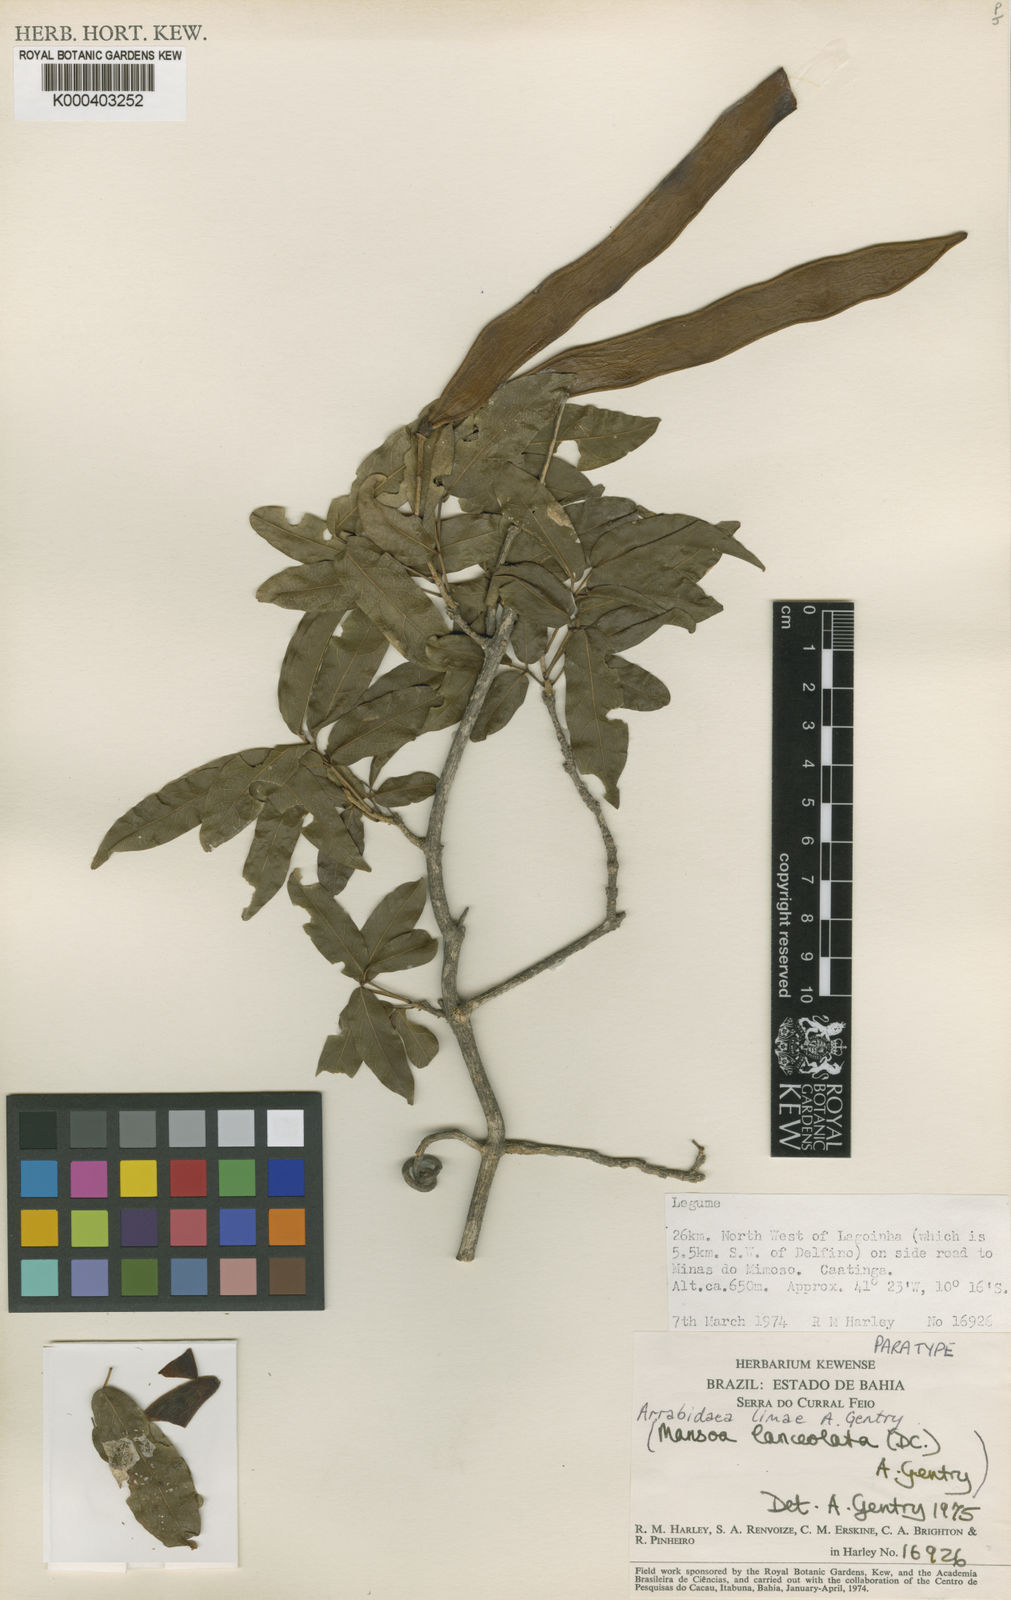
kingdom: Plantae
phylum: Tracheophyta
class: Magnoliopsida
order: Lamiales
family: Bignoniaceae
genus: Fridericia
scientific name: Fridericia limae
